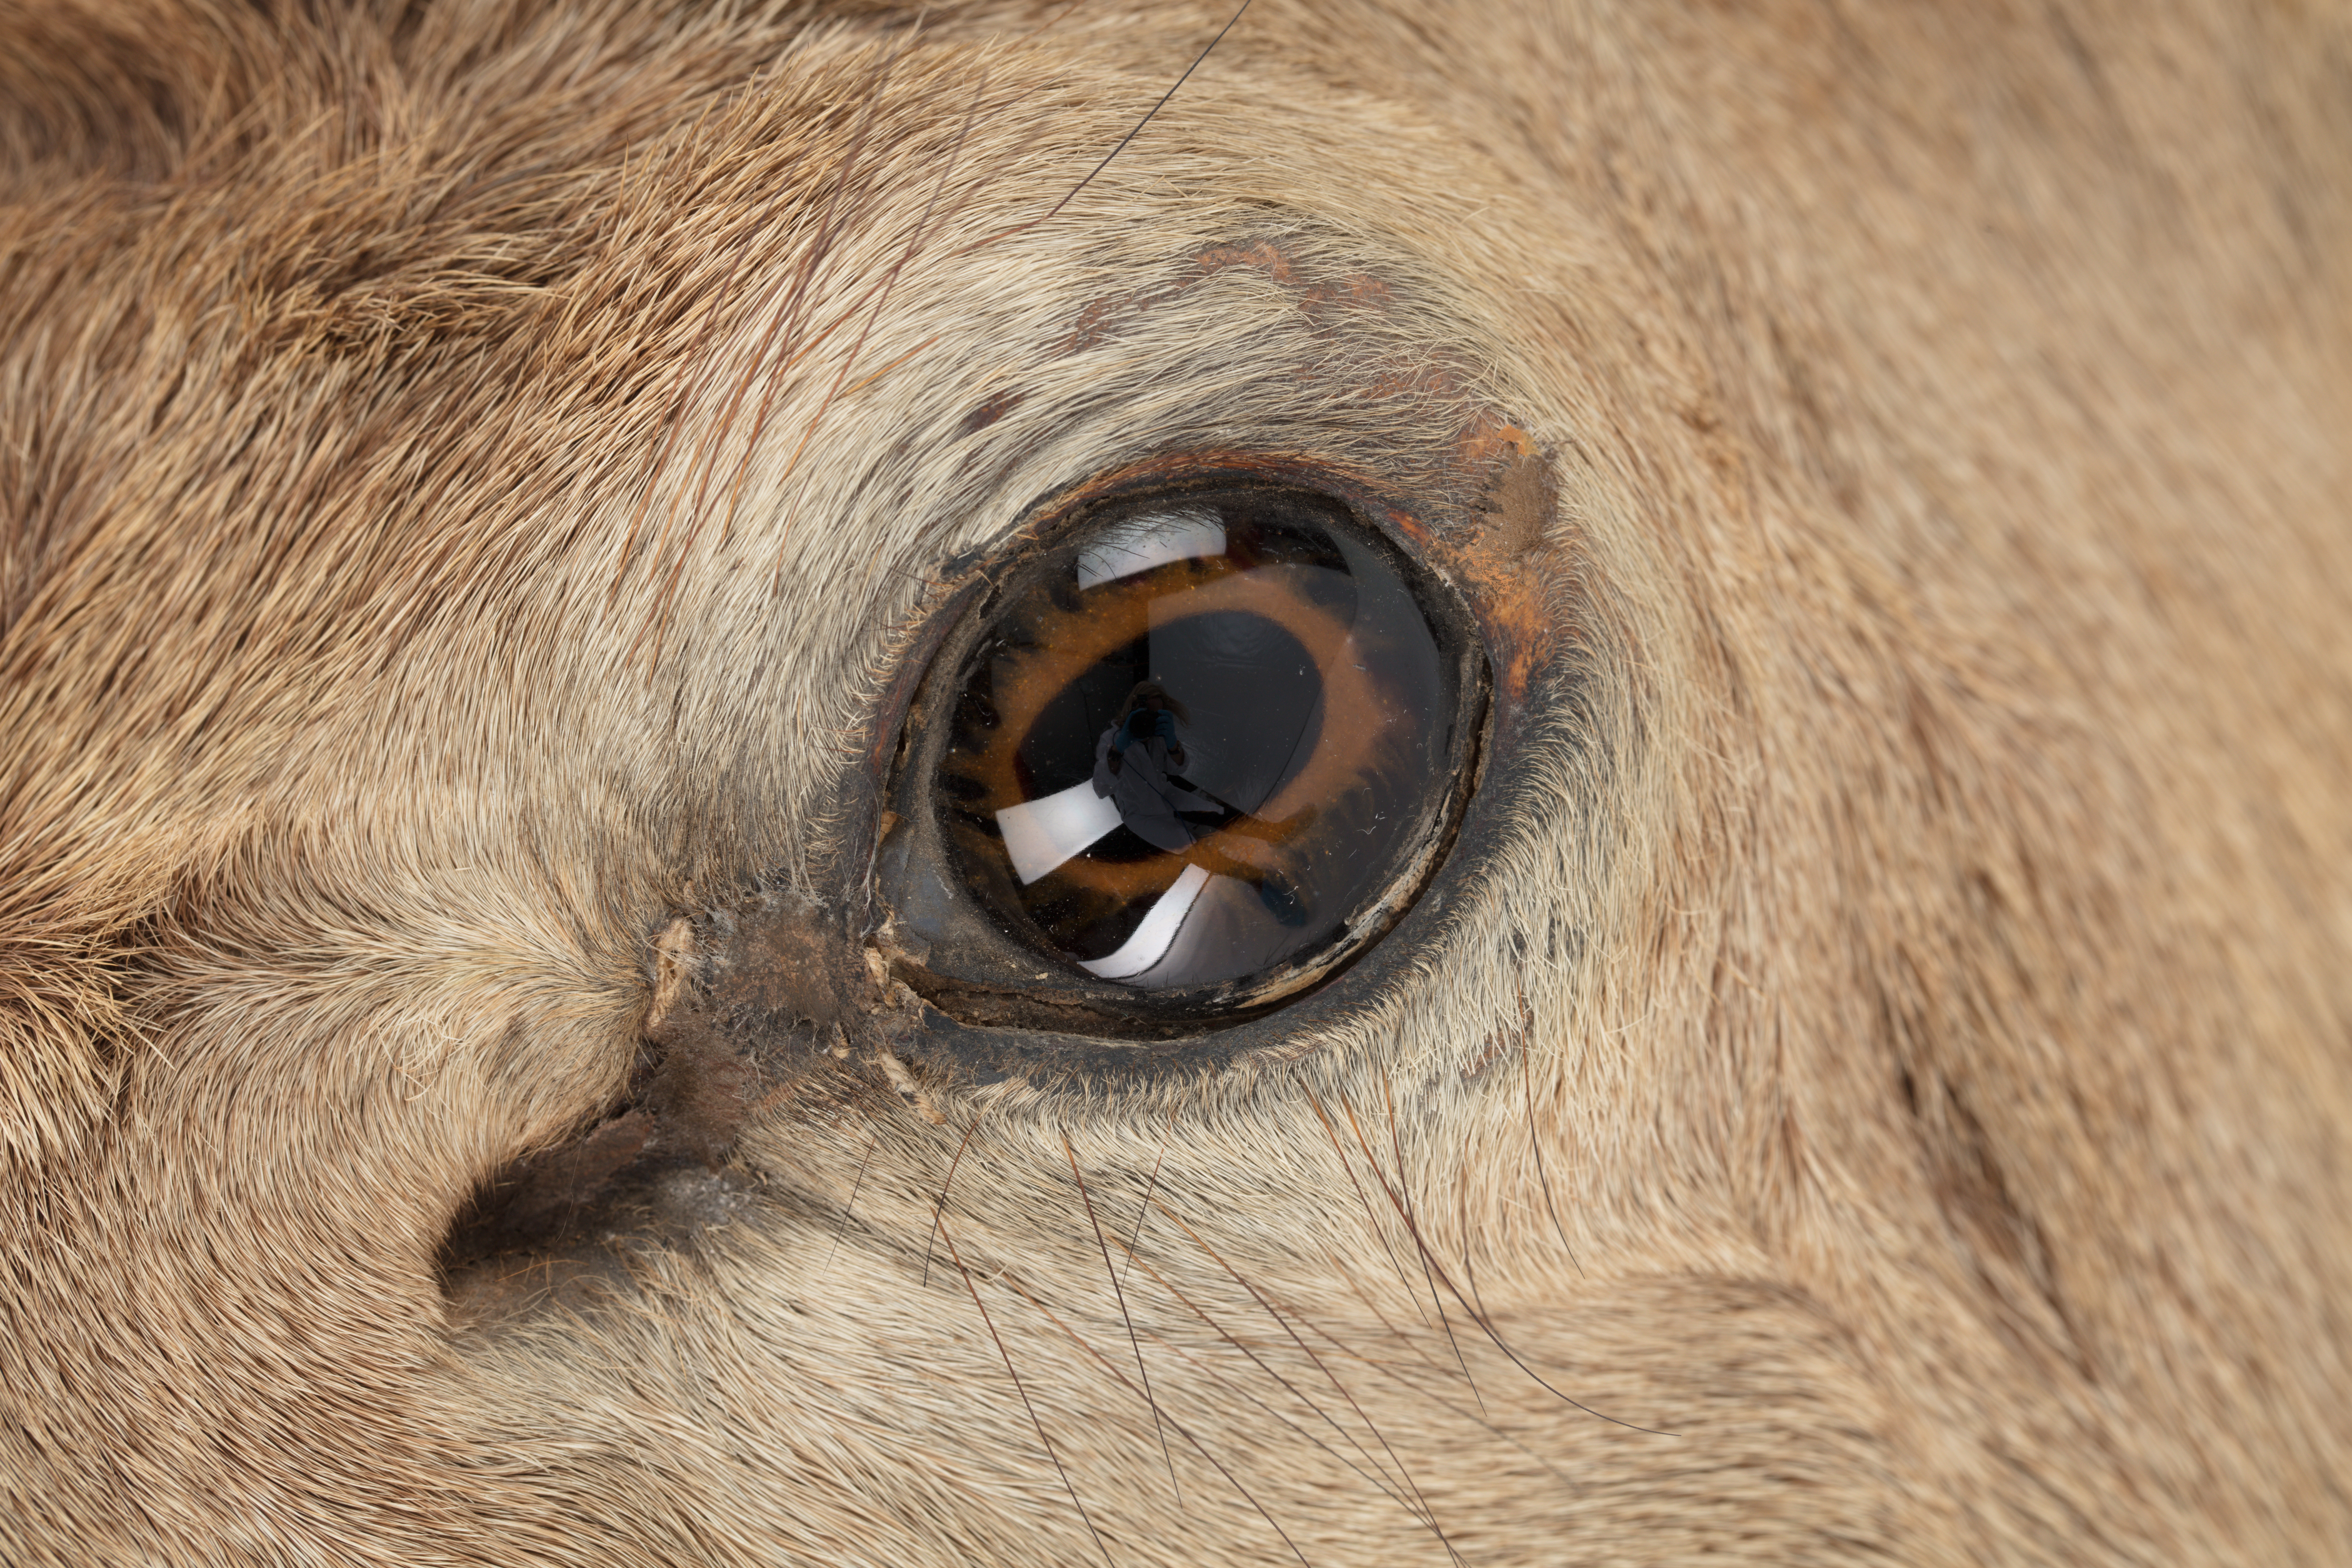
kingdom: Animalia
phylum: Chordata
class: Mammalia
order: Artiodactyla
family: Cervidae
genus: Cervus
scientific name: Cervus elaphus
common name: Red deer
